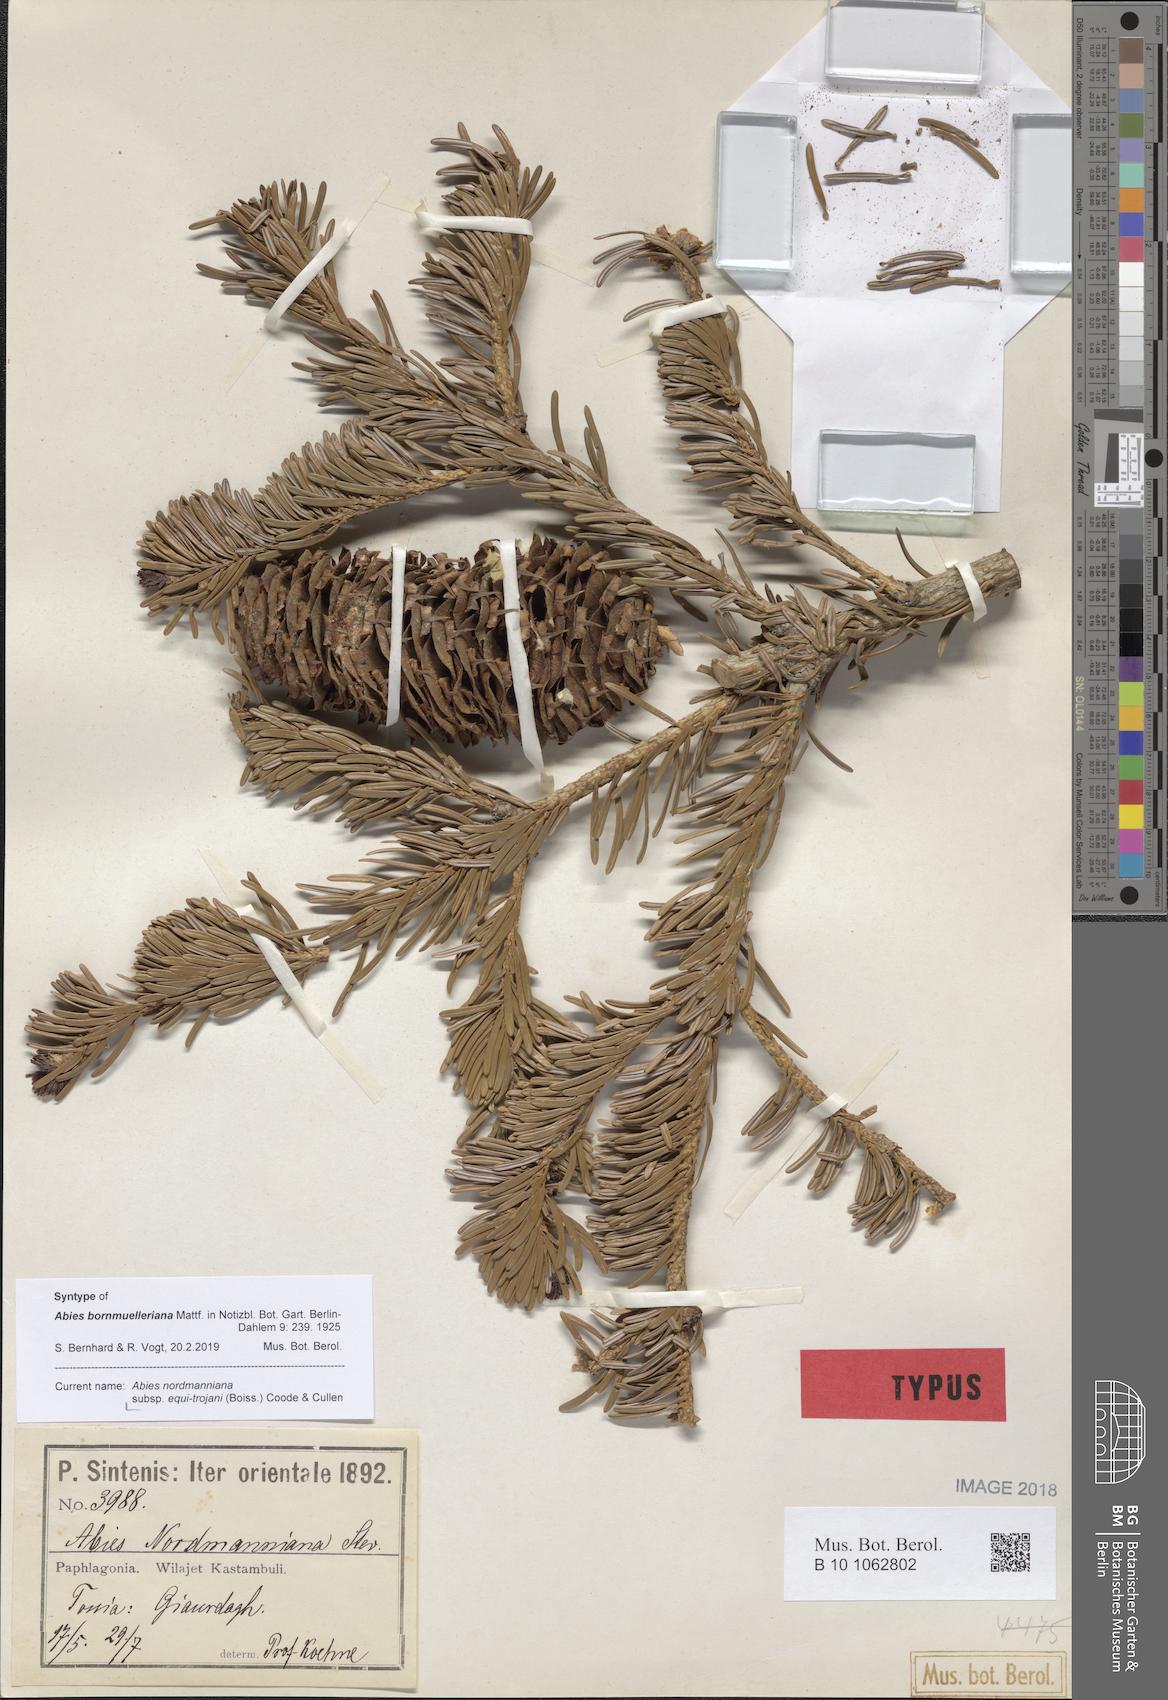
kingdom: Plantae
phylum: Tracheophyta
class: Pinopsida
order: Pinales
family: Pinaceae
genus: Abies
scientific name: Abies nordmanniana
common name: Caucasian fir
